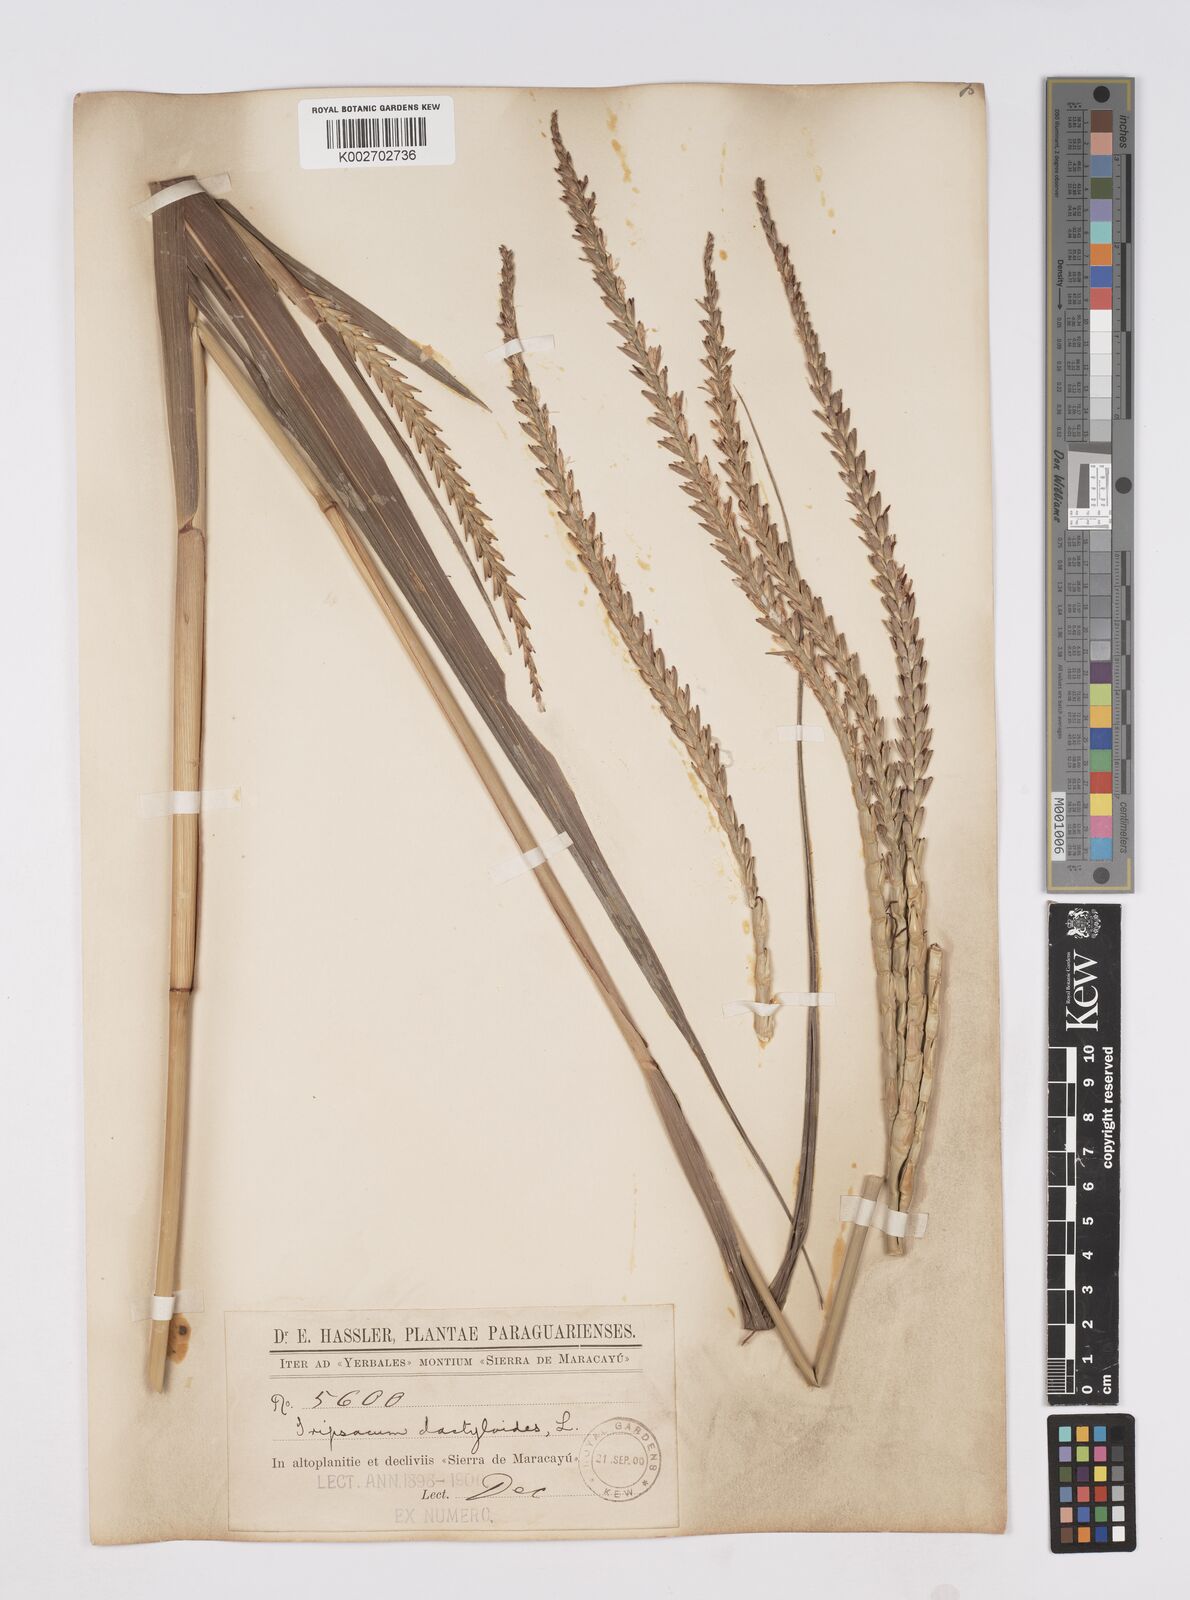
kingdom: Plantae
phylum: Tracheophyta
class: Liliopsida
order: Poales
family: Poaceae
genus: Tripsacum
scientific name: Tripsacum australe
